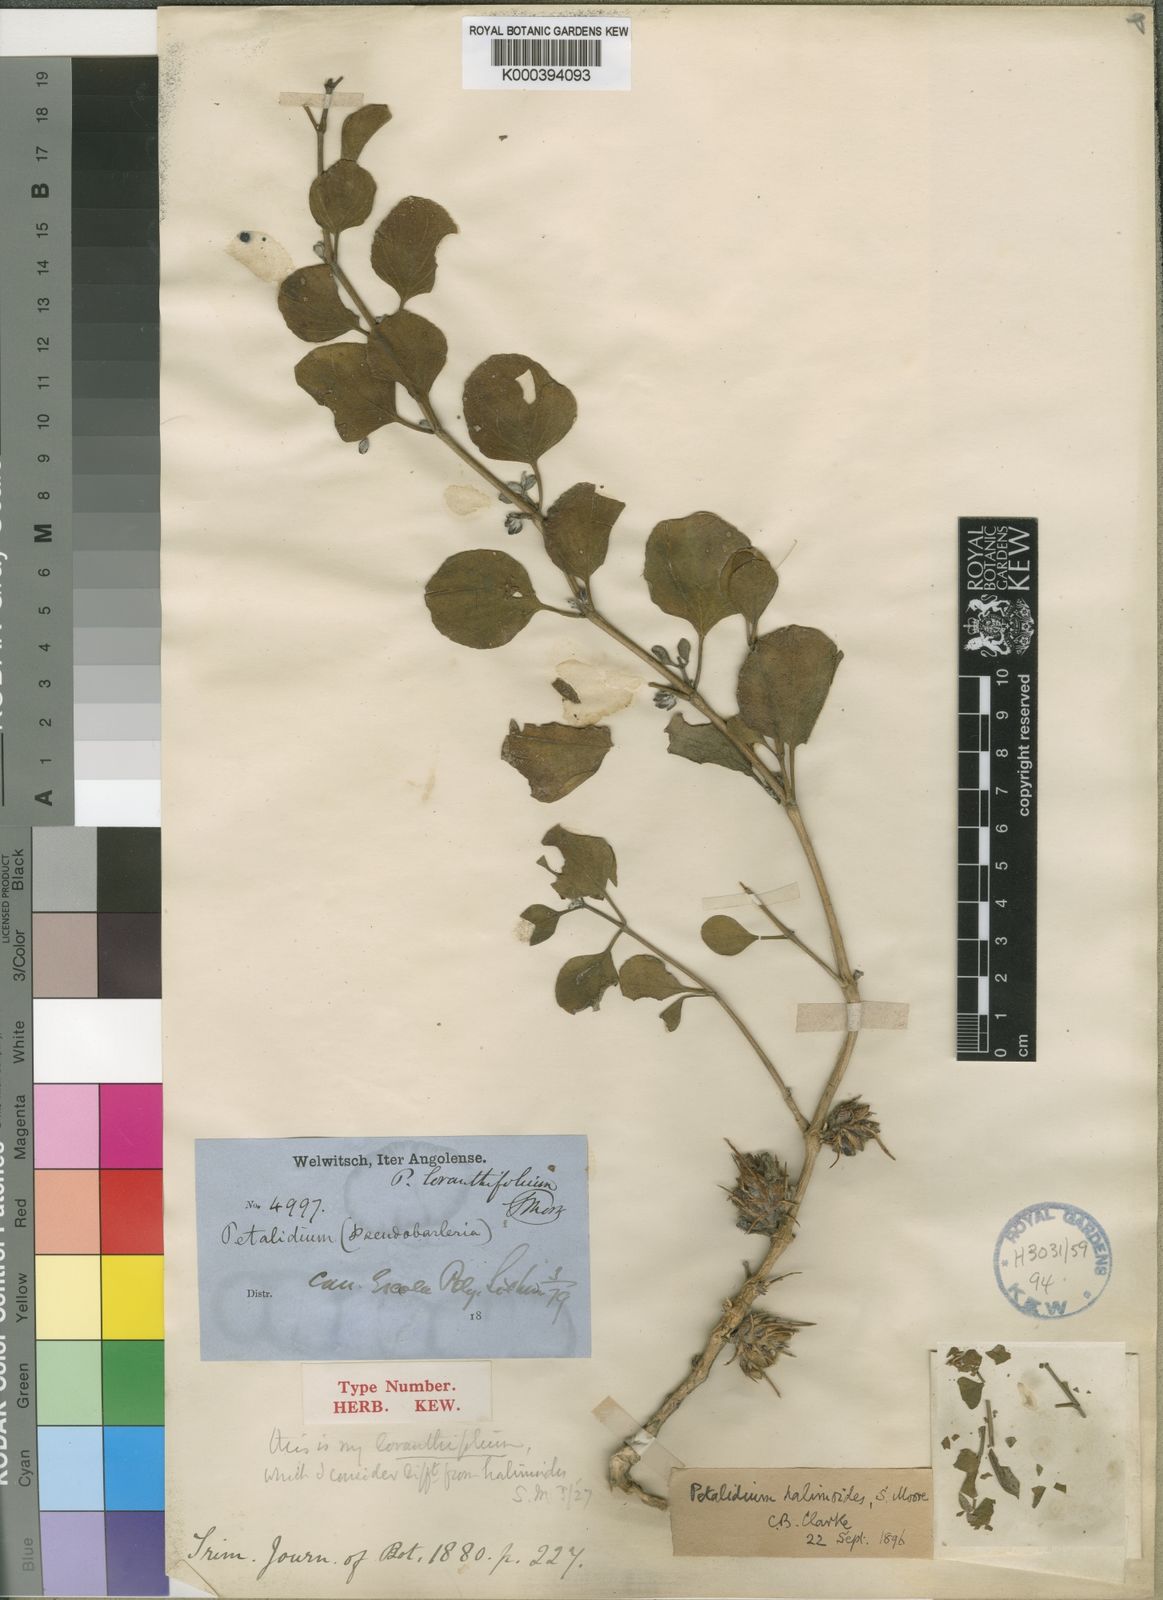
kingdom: Plantae
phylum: Tracheophyta
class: Magnoliopsida
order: Lamiales
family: Acanthaceae
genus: Petalidium
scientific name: Petalidium halimoides
